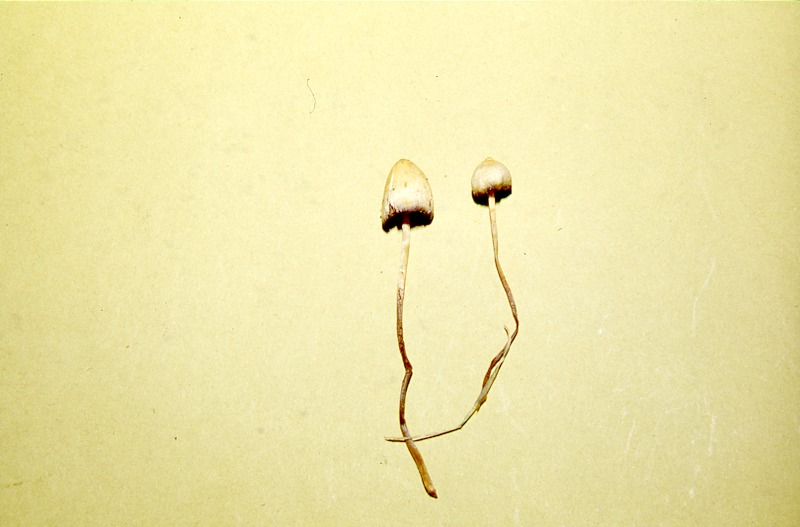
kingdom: Fungi
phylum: Basidiomycota
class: Agaricomycetes
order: Agaricales
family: Hymenogastraceae
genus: Psilocybe
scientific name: Psilocybe semilanceata
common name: Liberty cap
